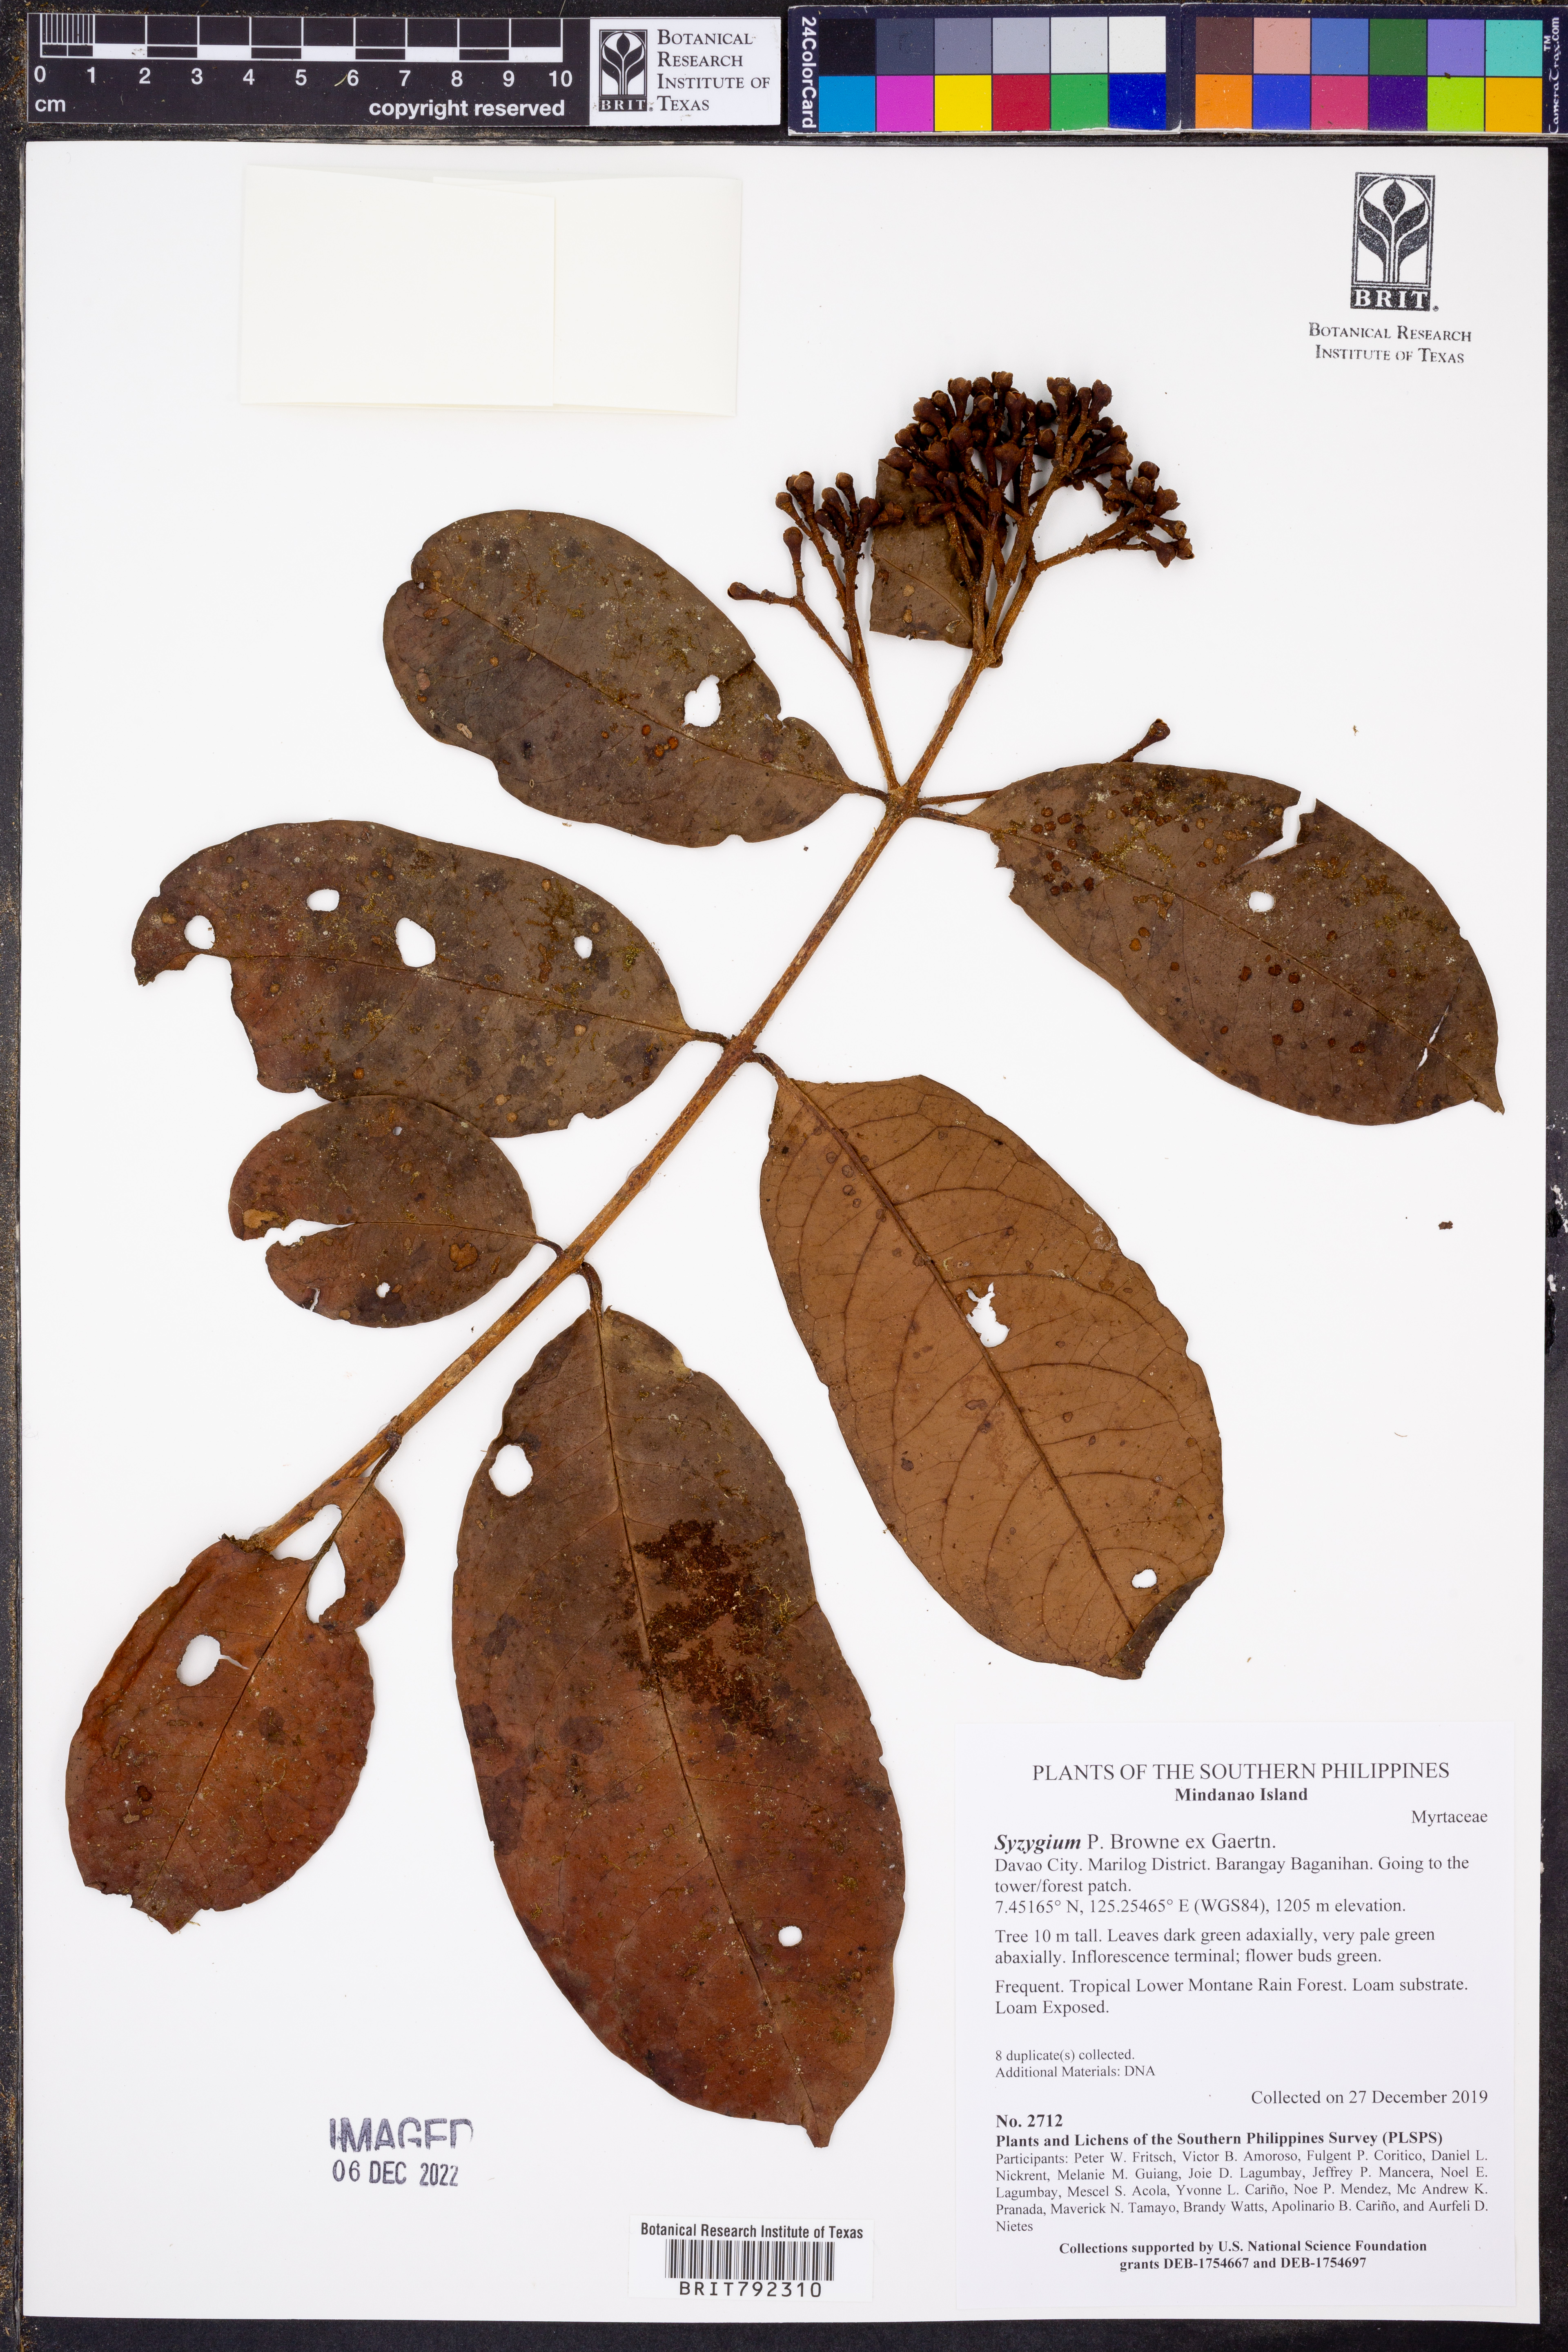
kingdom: Plantae
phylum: Tracheophyta
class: Magnoliopsida
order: Myrtales
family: Myrtaceae
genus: Syzygium
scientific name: Syzygium
